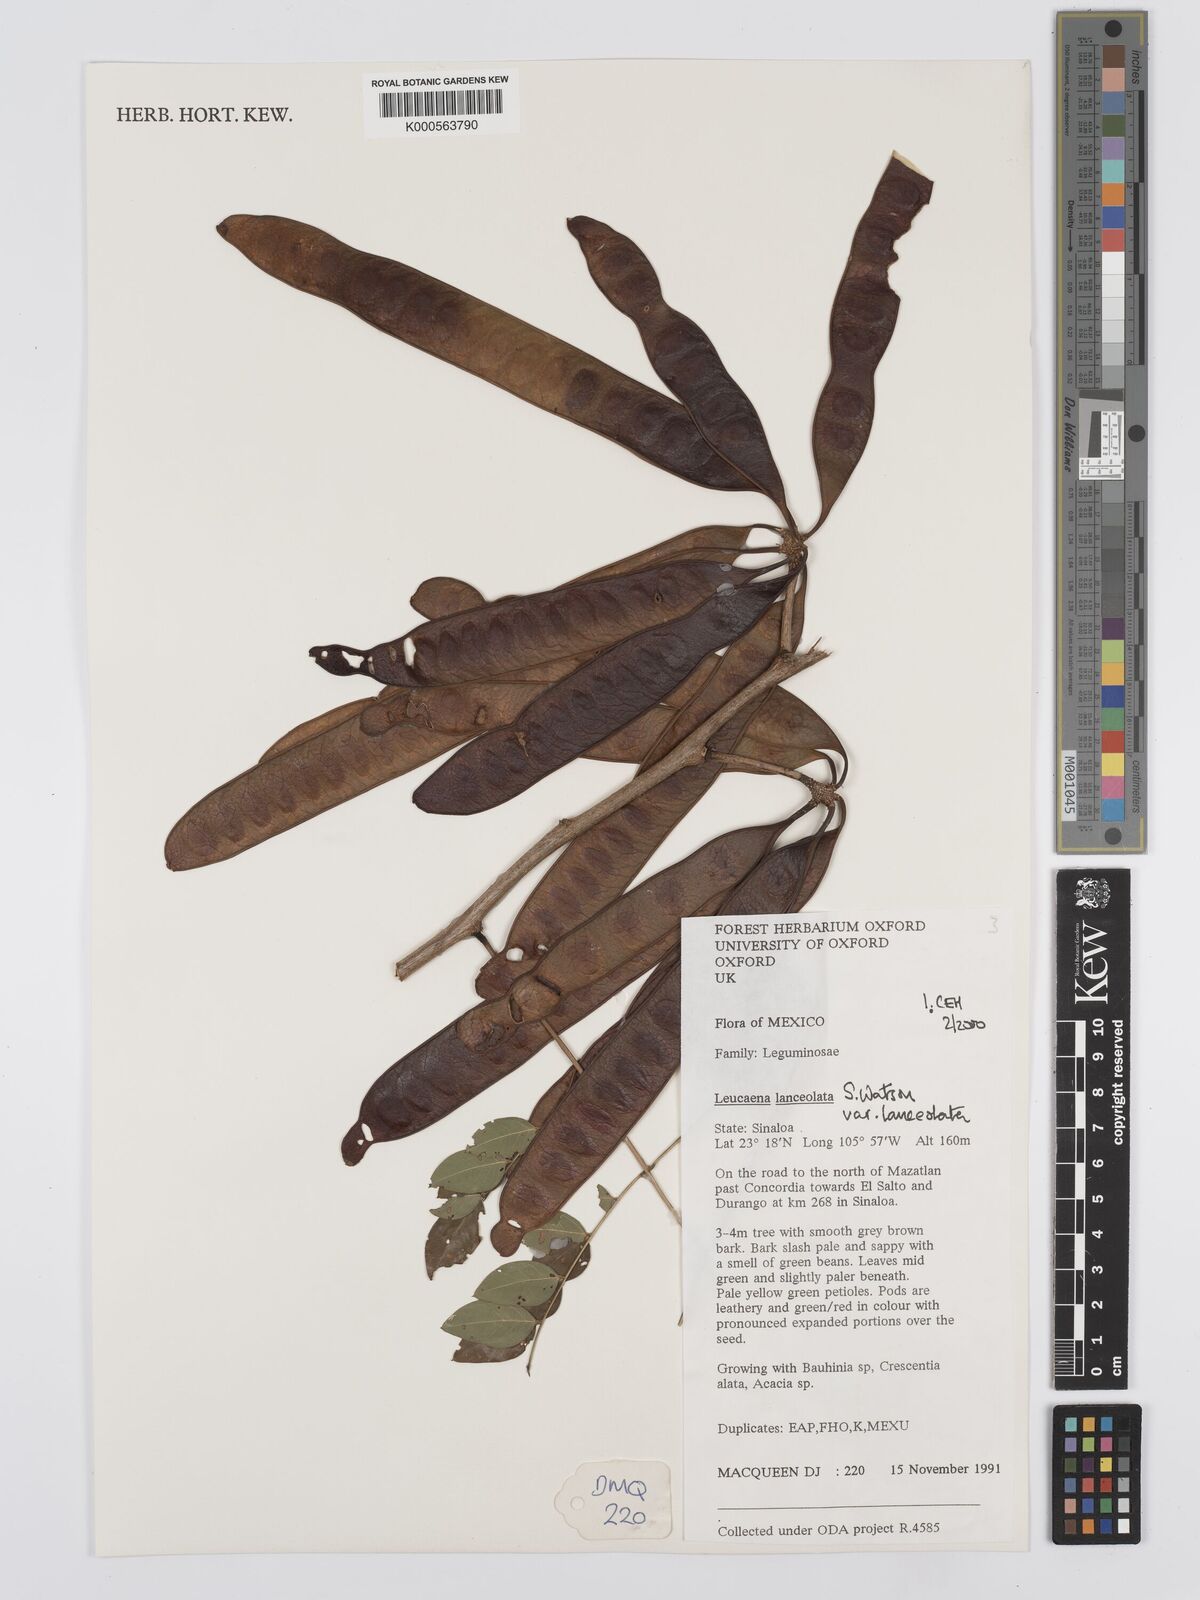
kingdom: Plantae
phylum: Tracheophyta
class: Magnoliopsida
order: Fabales
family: Fabaceae
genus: Leucaena
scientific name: Leucaena lanceolata
